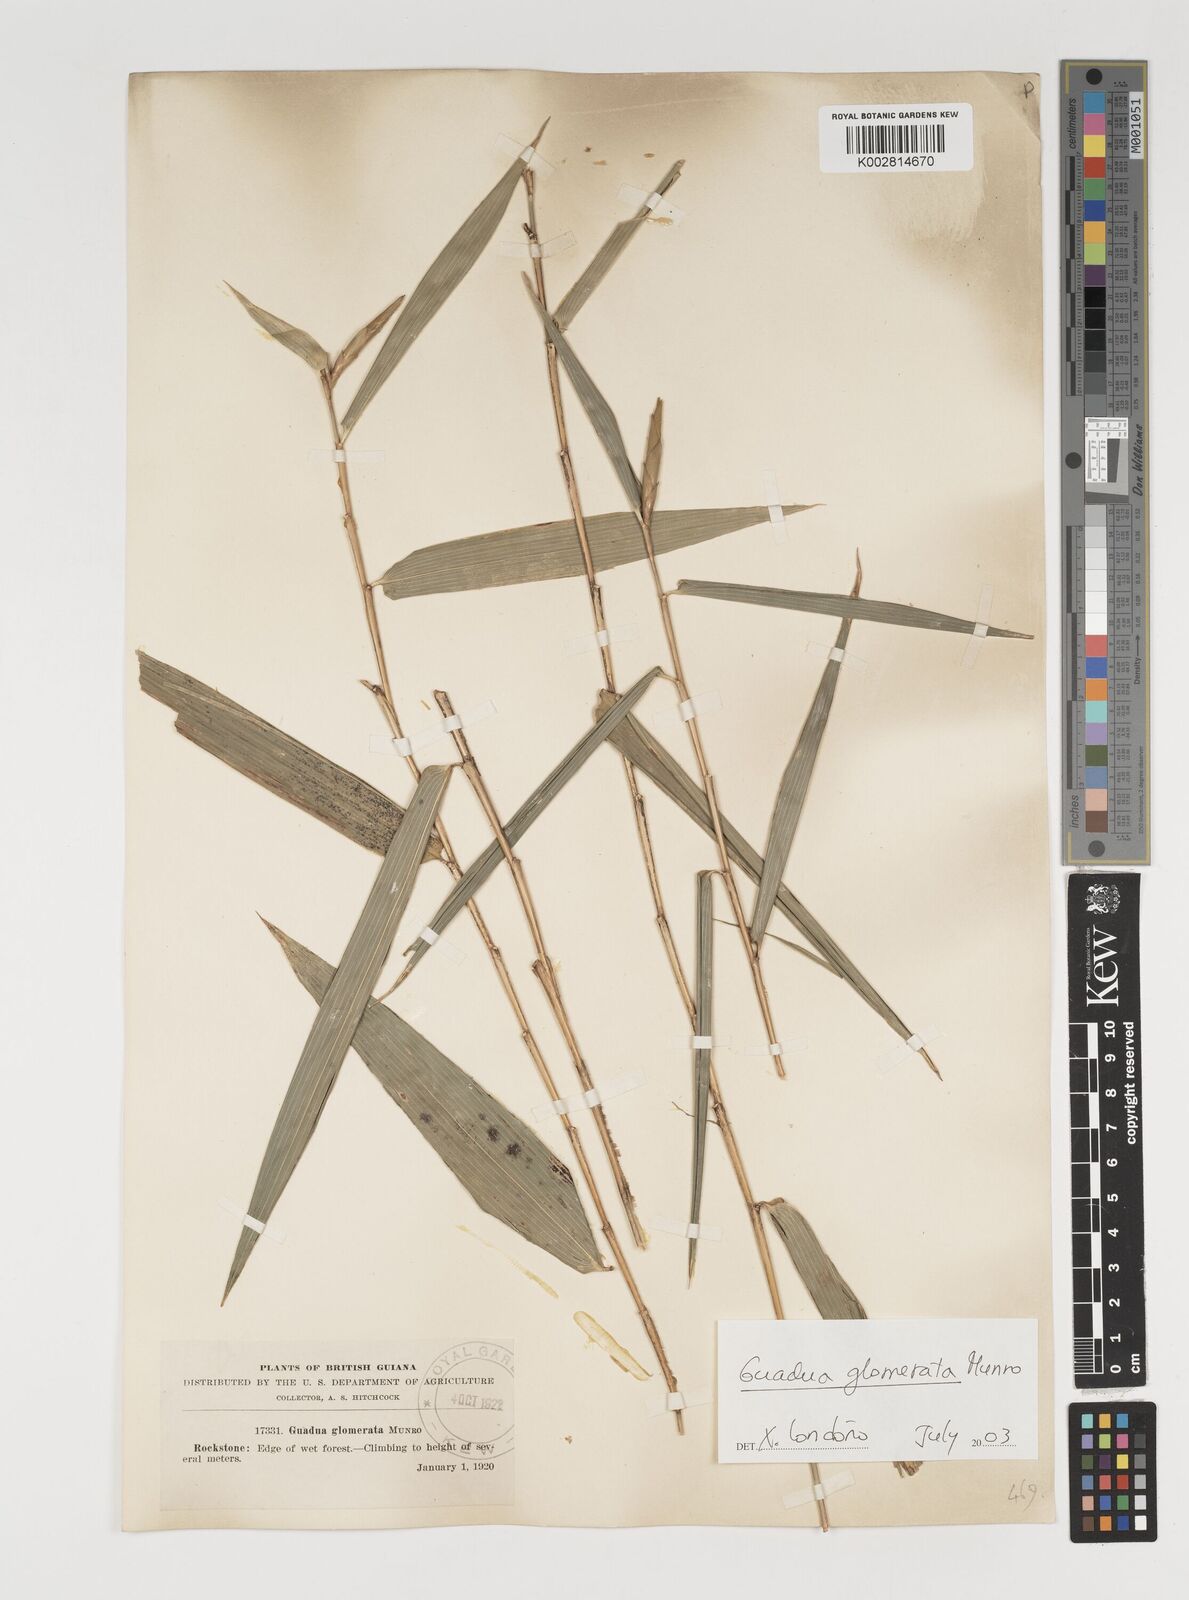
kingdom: Plantae
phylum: Tracheophyta
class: Liliopsida
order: Poales
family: Poaceae
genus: Guadua
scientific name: Guadua glomerata
